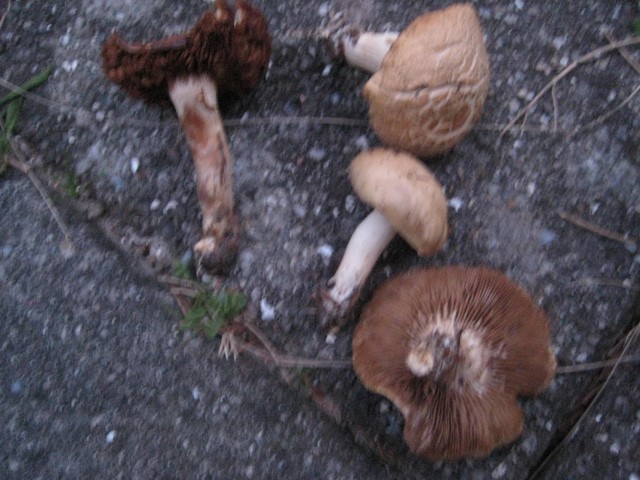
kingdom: Fungi
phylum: Basidiomycota
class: Agaricomycetes
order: Agaricales
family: Strophariaceae
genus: Agrocybe
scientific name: Agrocybe praecox
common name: tidlig agerhat
